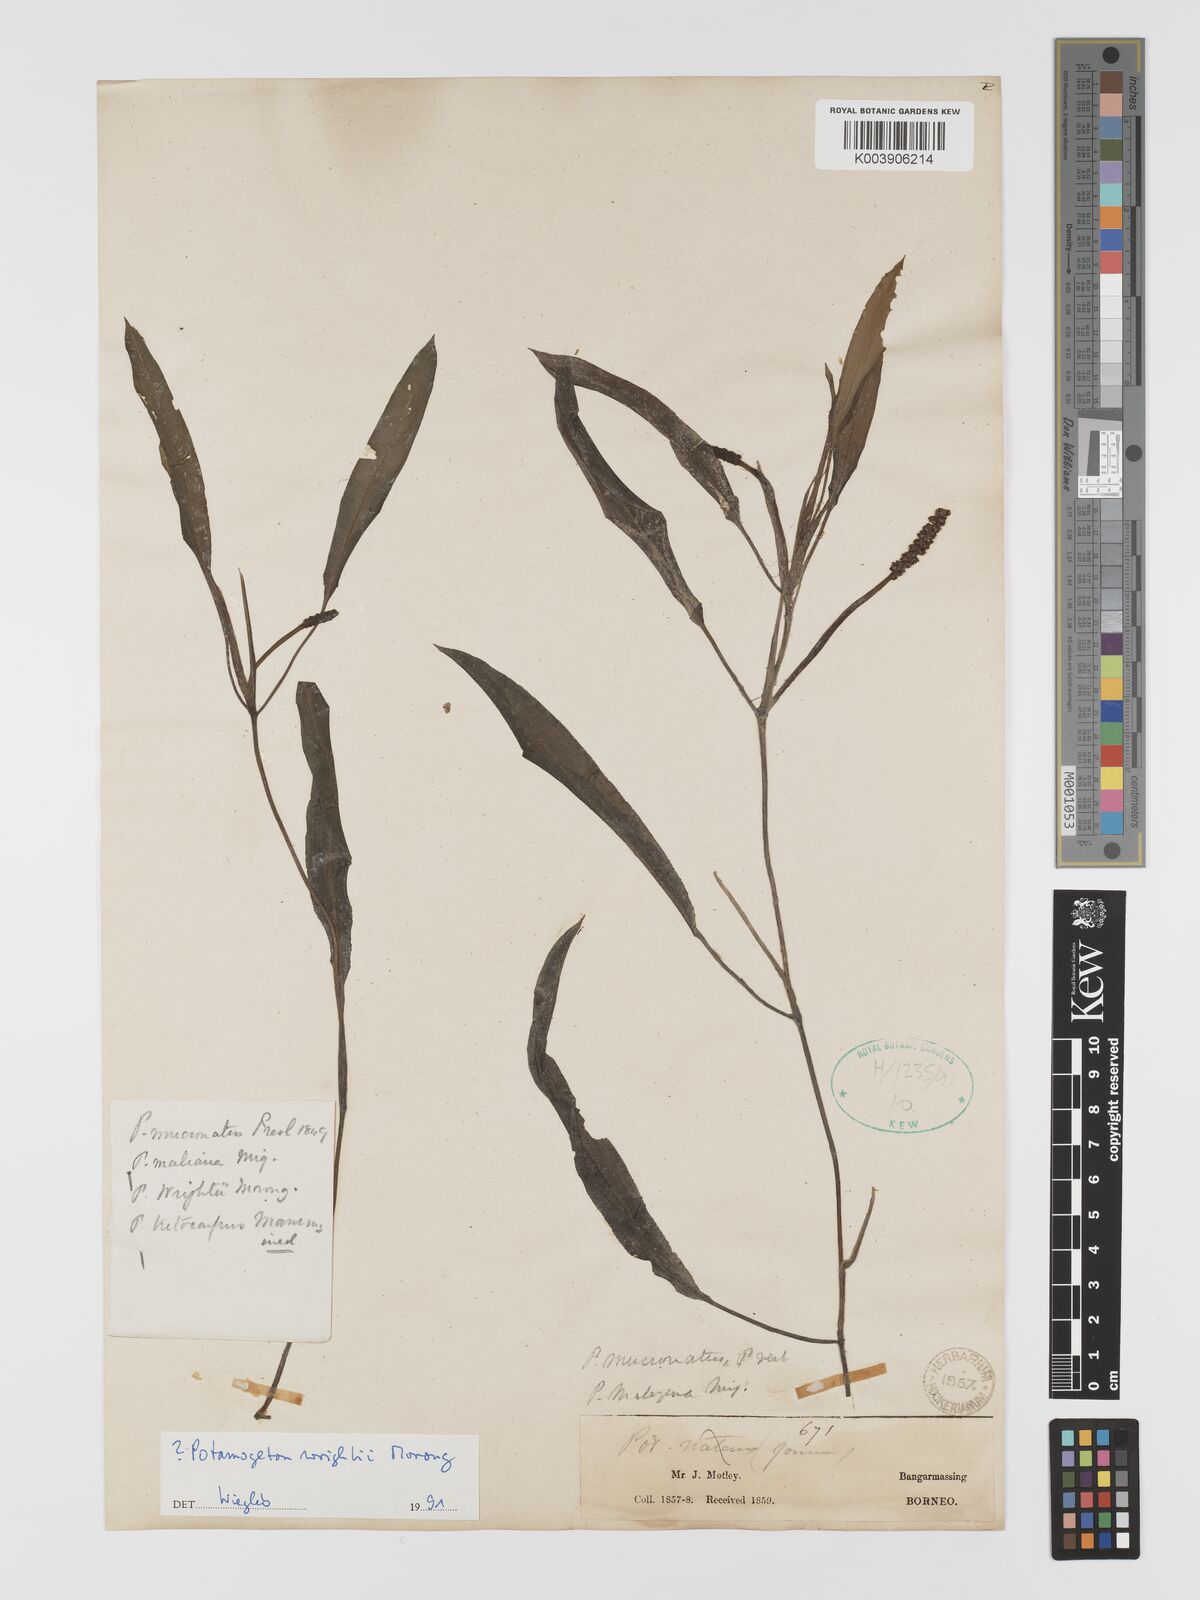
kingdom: Plantae
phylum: Tracheophyta
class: Liliopsida
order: Alismatales
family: Potamogetonaceae
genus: Potamogeton
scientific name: Potamogeton distinctus
